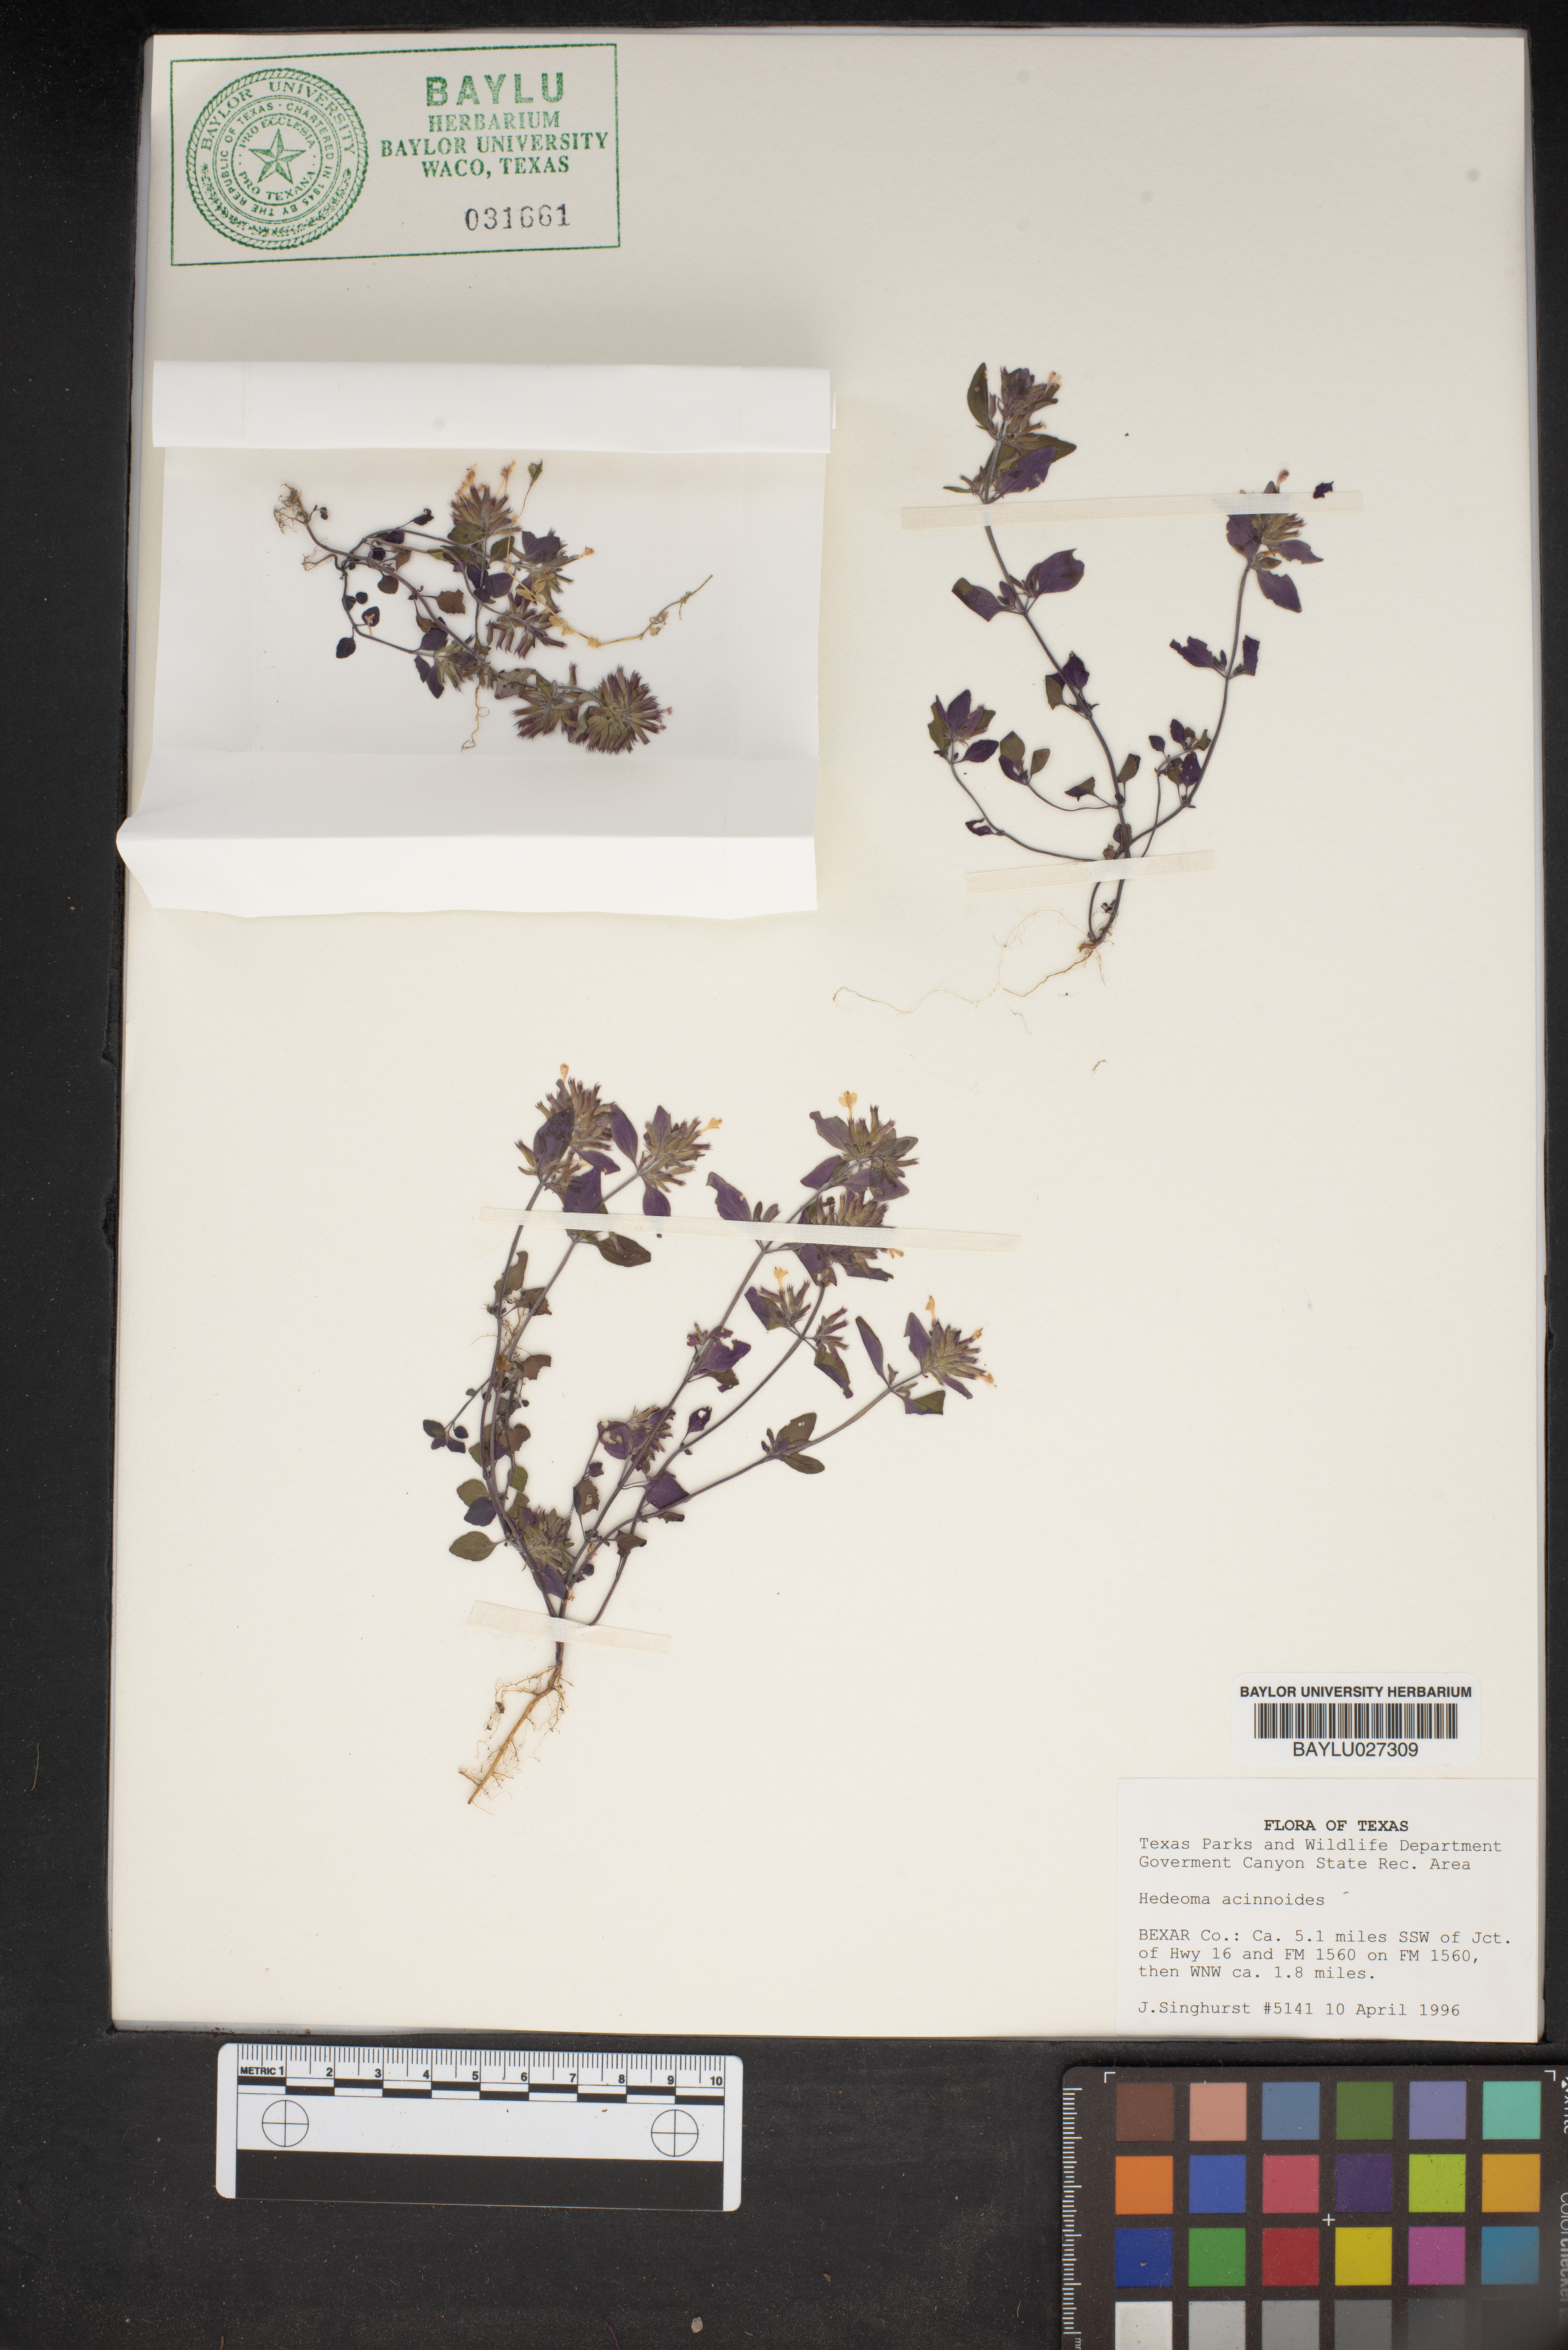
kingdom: Plantae
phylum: Tracheophyta
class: Magnoliopsida
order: Lamiales
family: Lamiaceae
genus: Hedeoma
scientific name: Hedeoma acinoides
